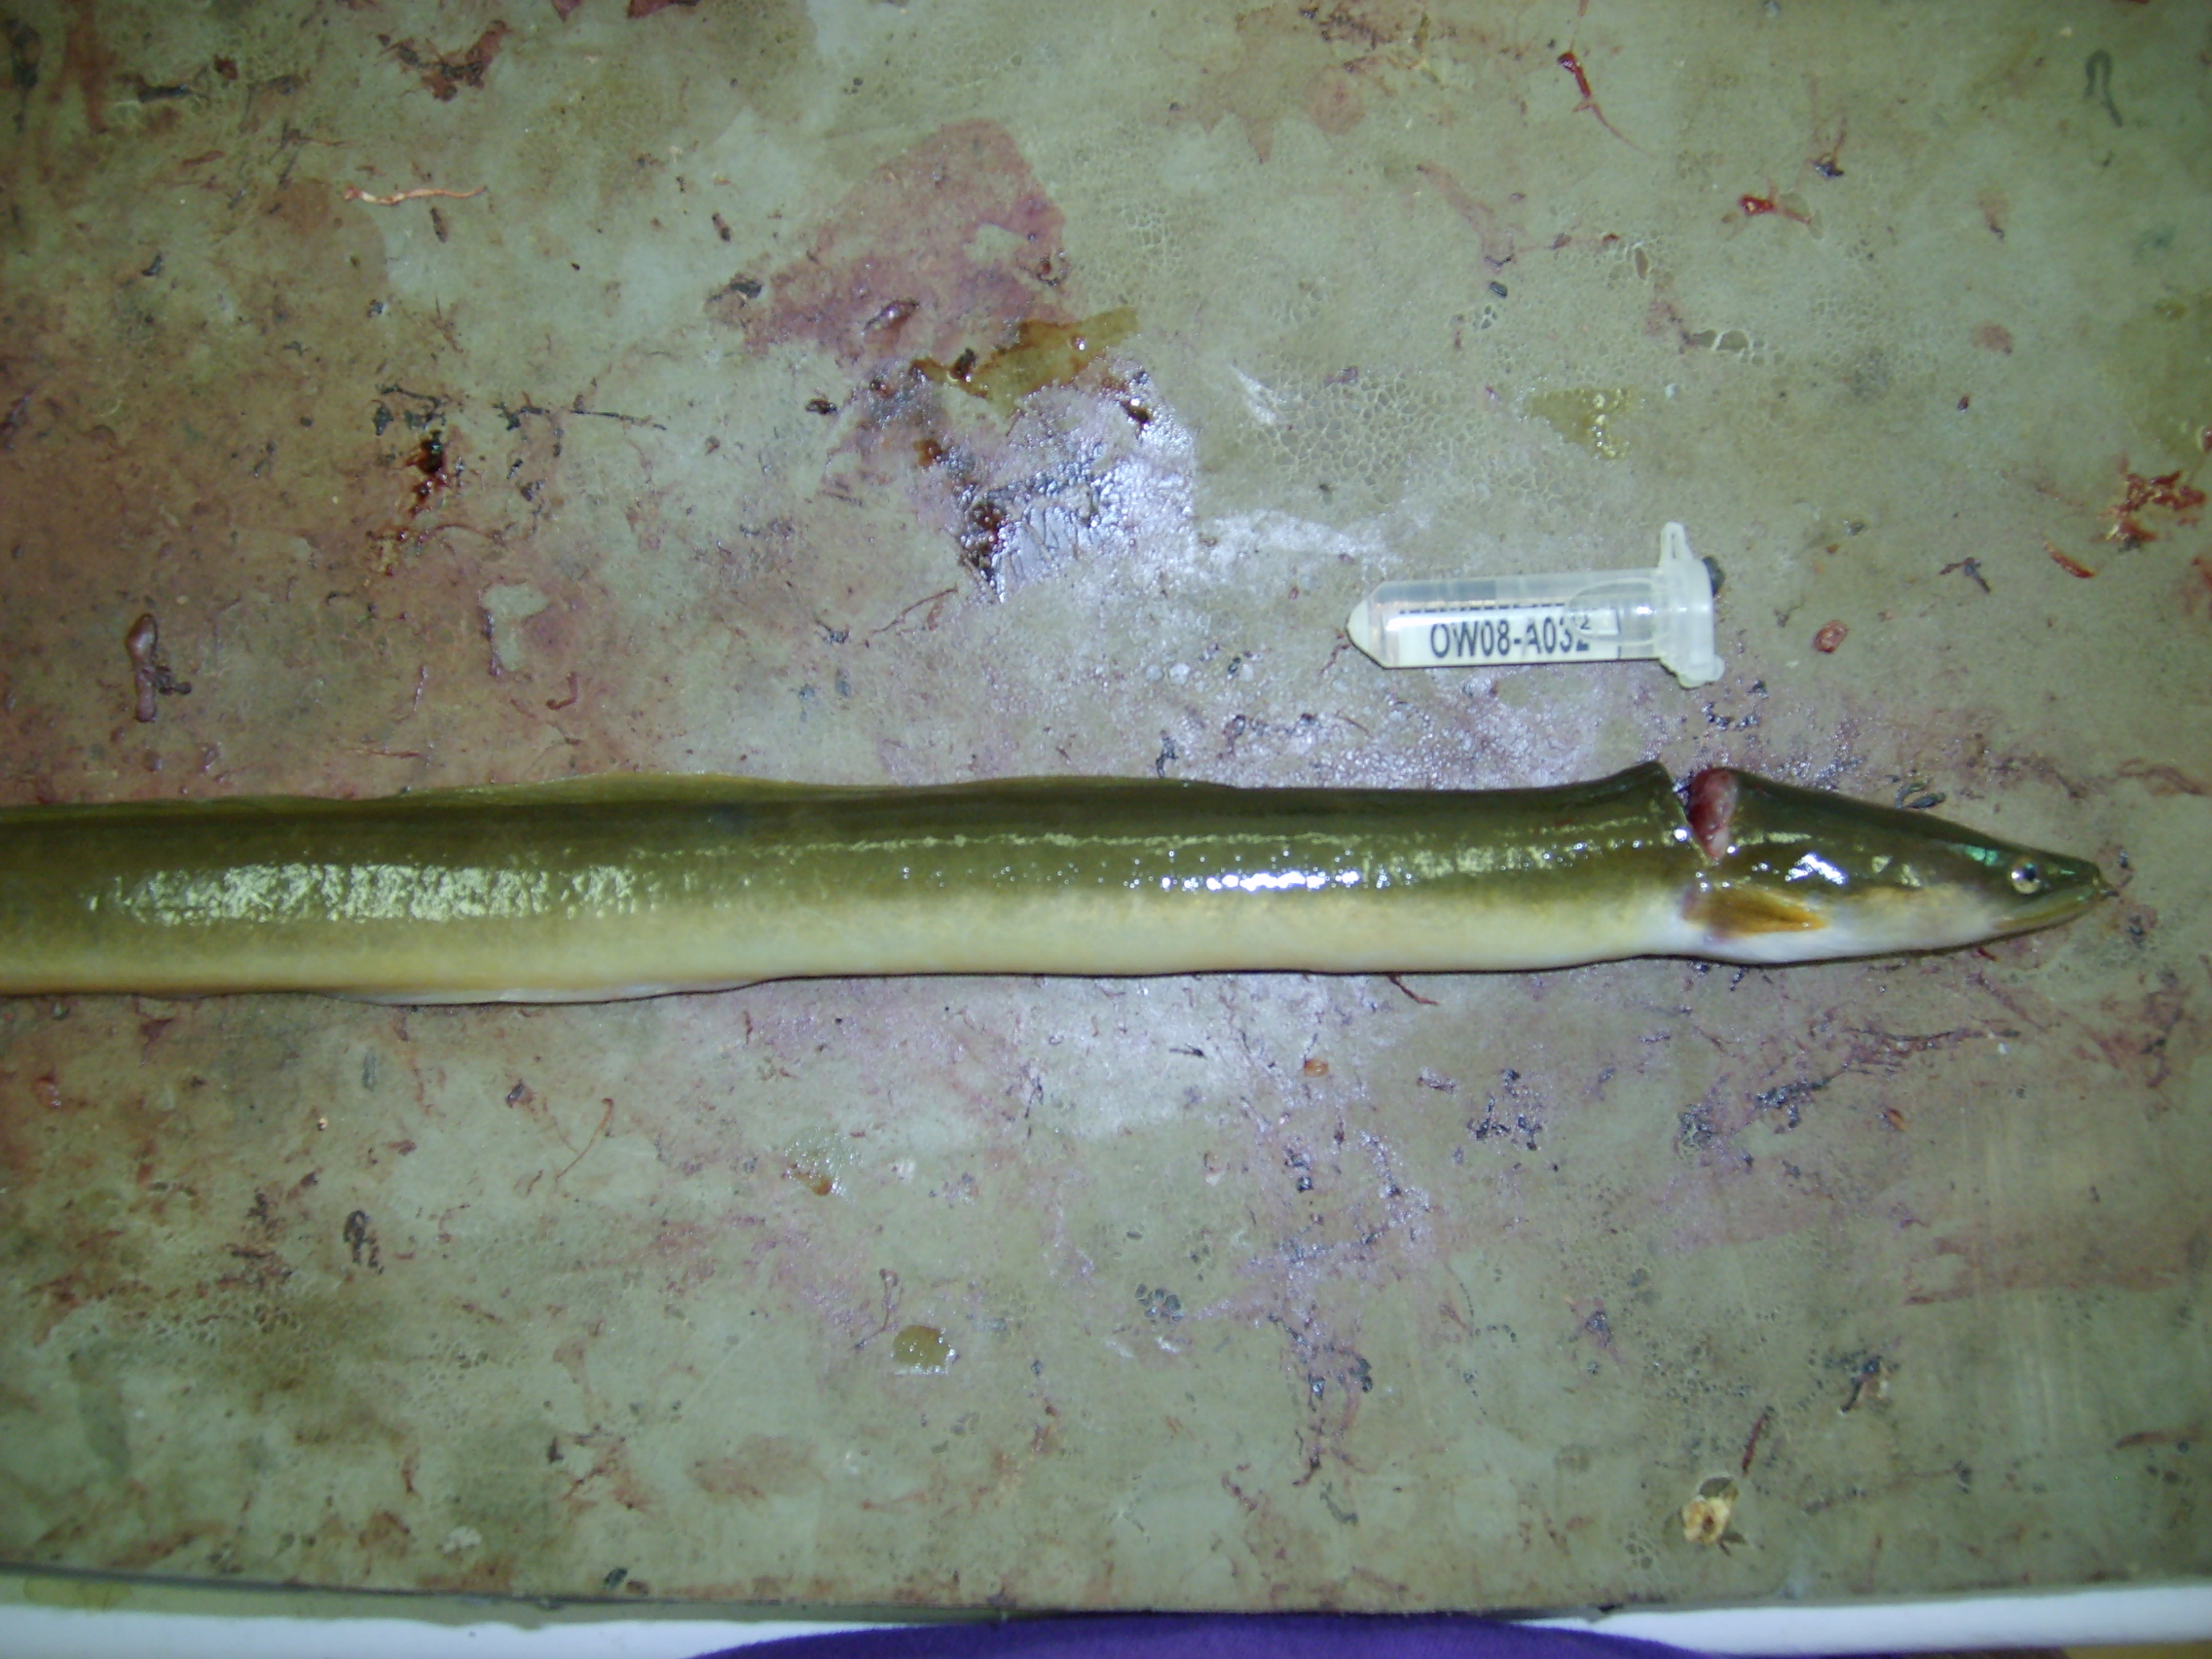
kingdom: Animalia
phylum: Chordata
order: Anguilliformes
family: Anguillidae
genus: Anguilla
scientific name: Anguilla mossambica
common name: African longfin eel
